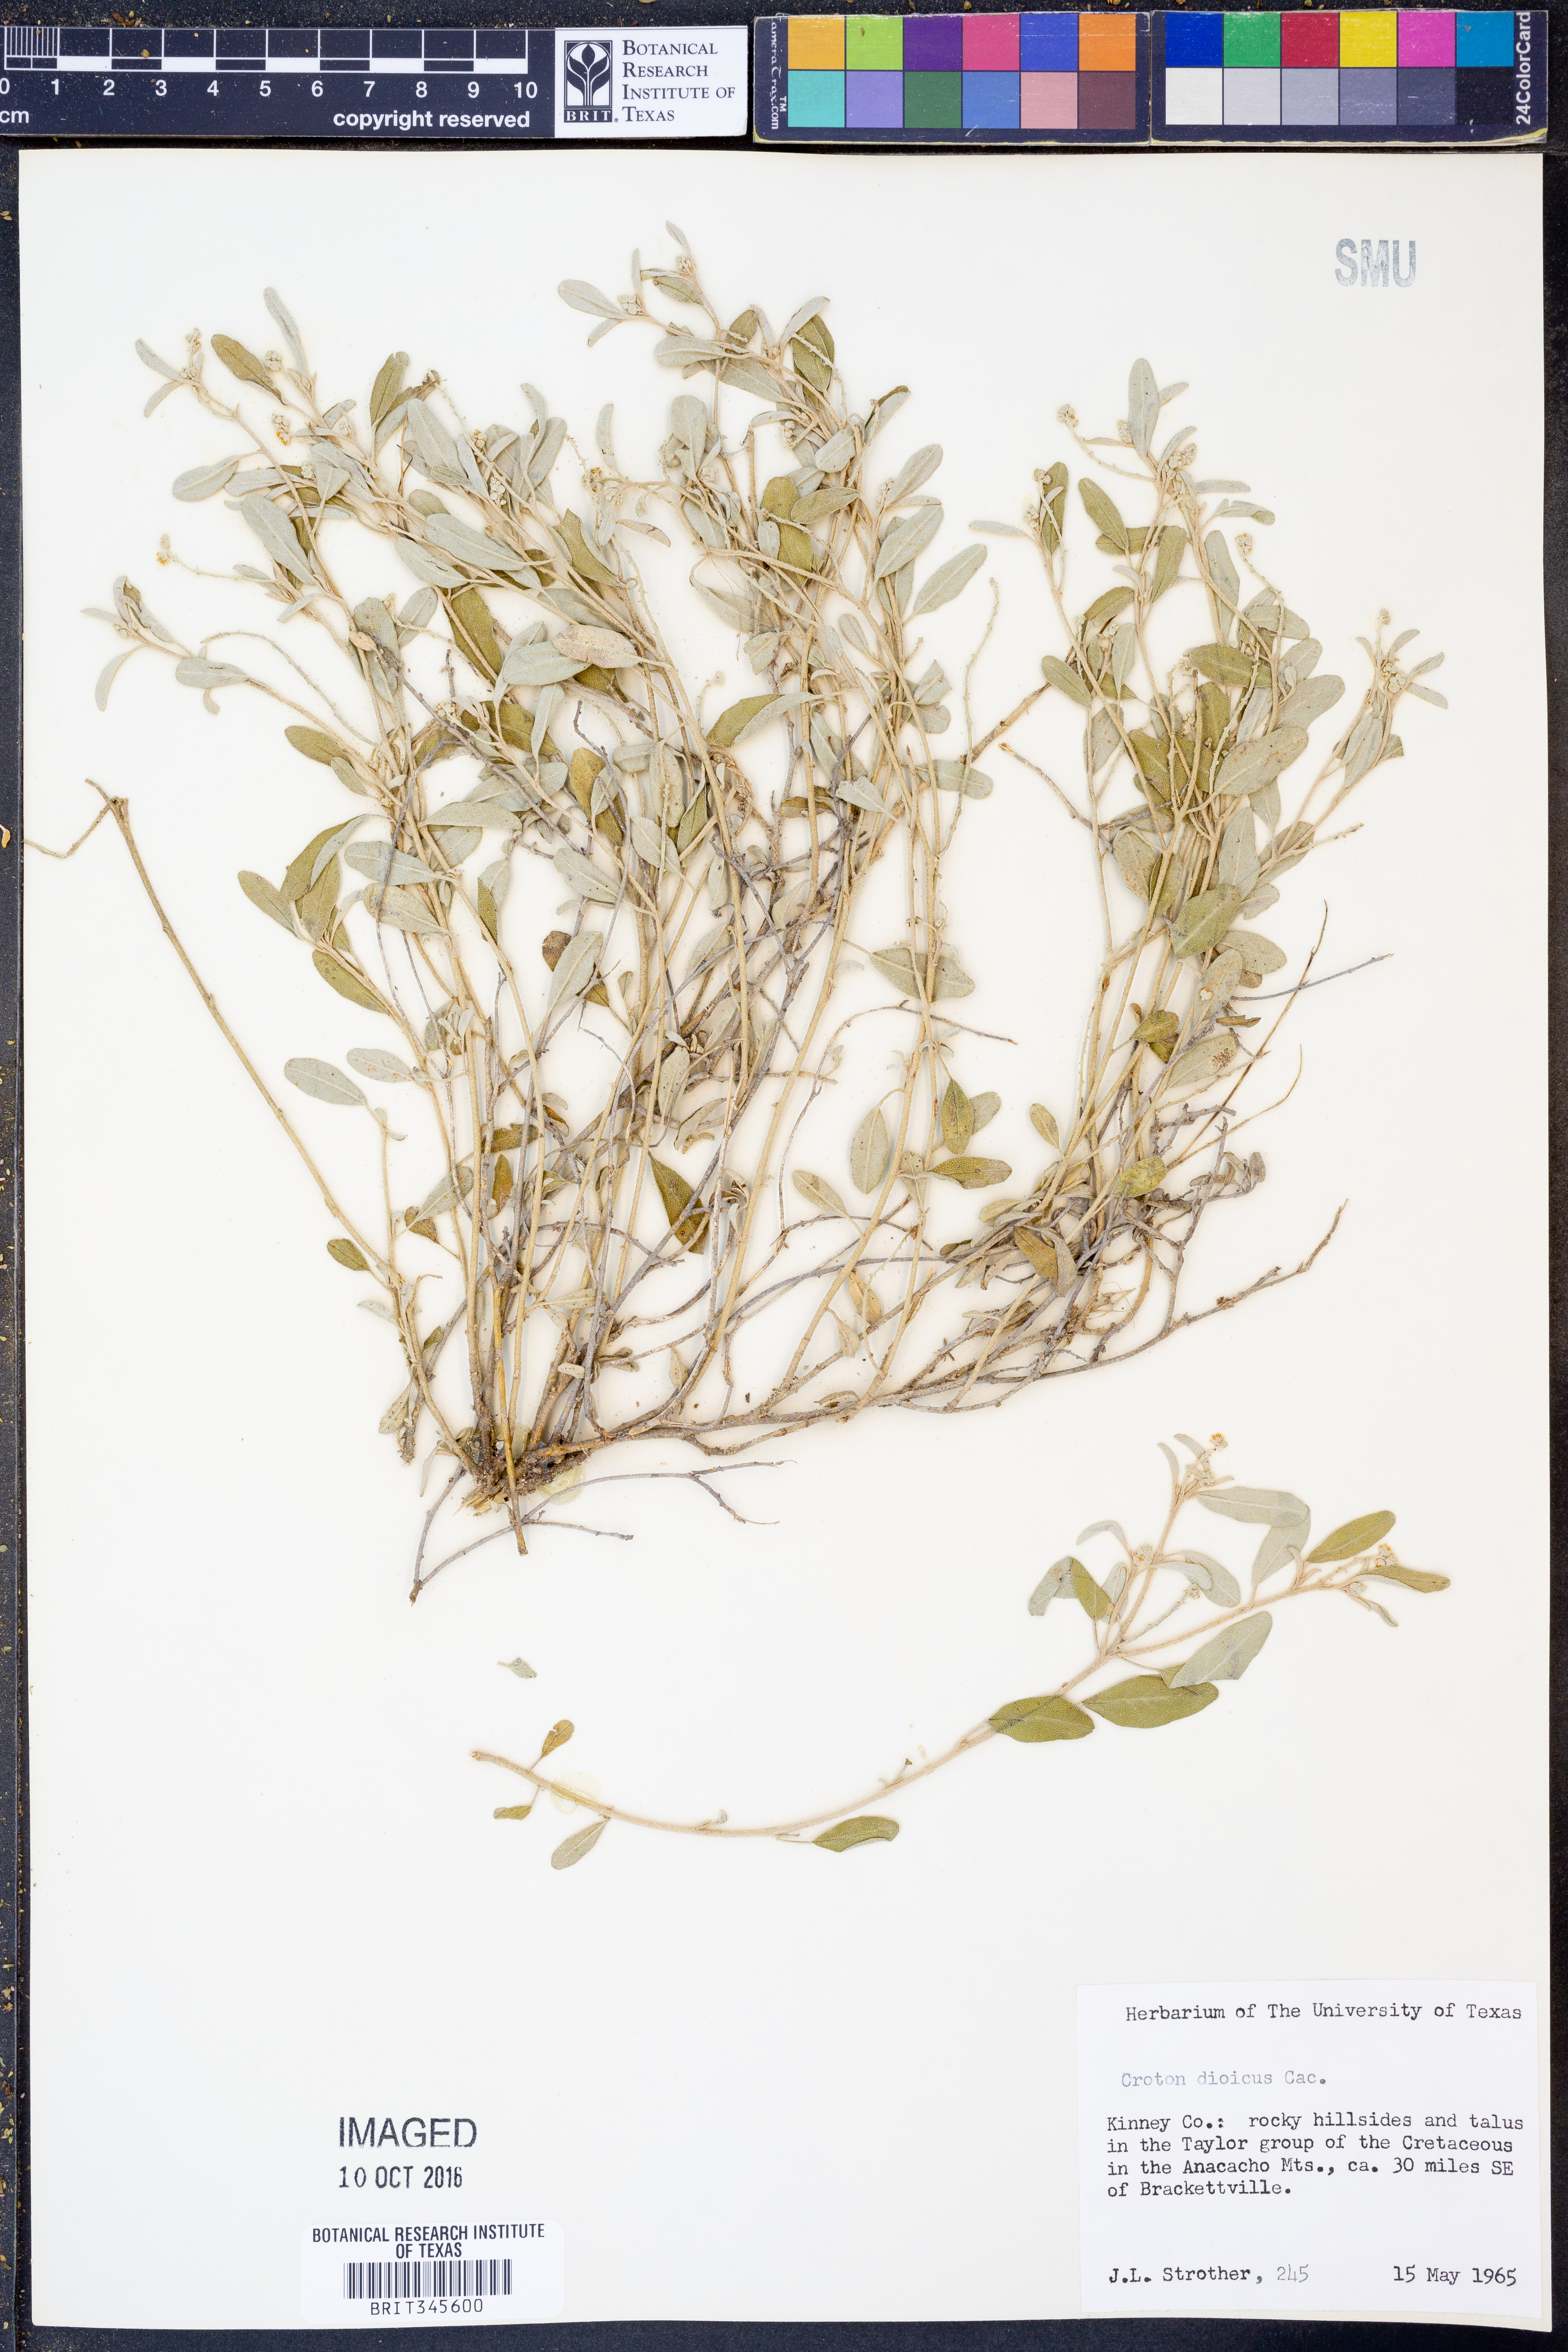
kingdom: Plantae
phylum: Tracheophyta
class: Magnoliopsida
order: Malpighiales
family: Euphorbiaceae
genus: Croton
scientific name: Croton dioicus
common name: Grassland croton
